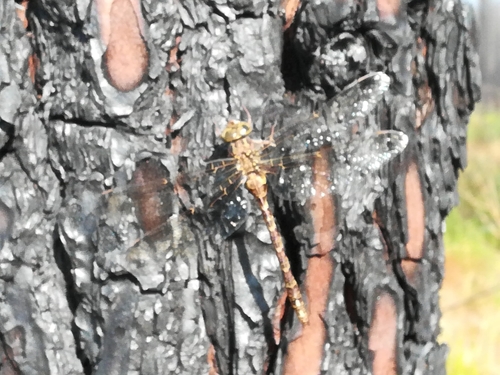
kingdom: Animalia
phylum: Arthropoda
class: Insecta
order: Odonata
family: Aeshnidae
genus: Boyeria
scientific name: Boyeria irene
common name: Western spectre
